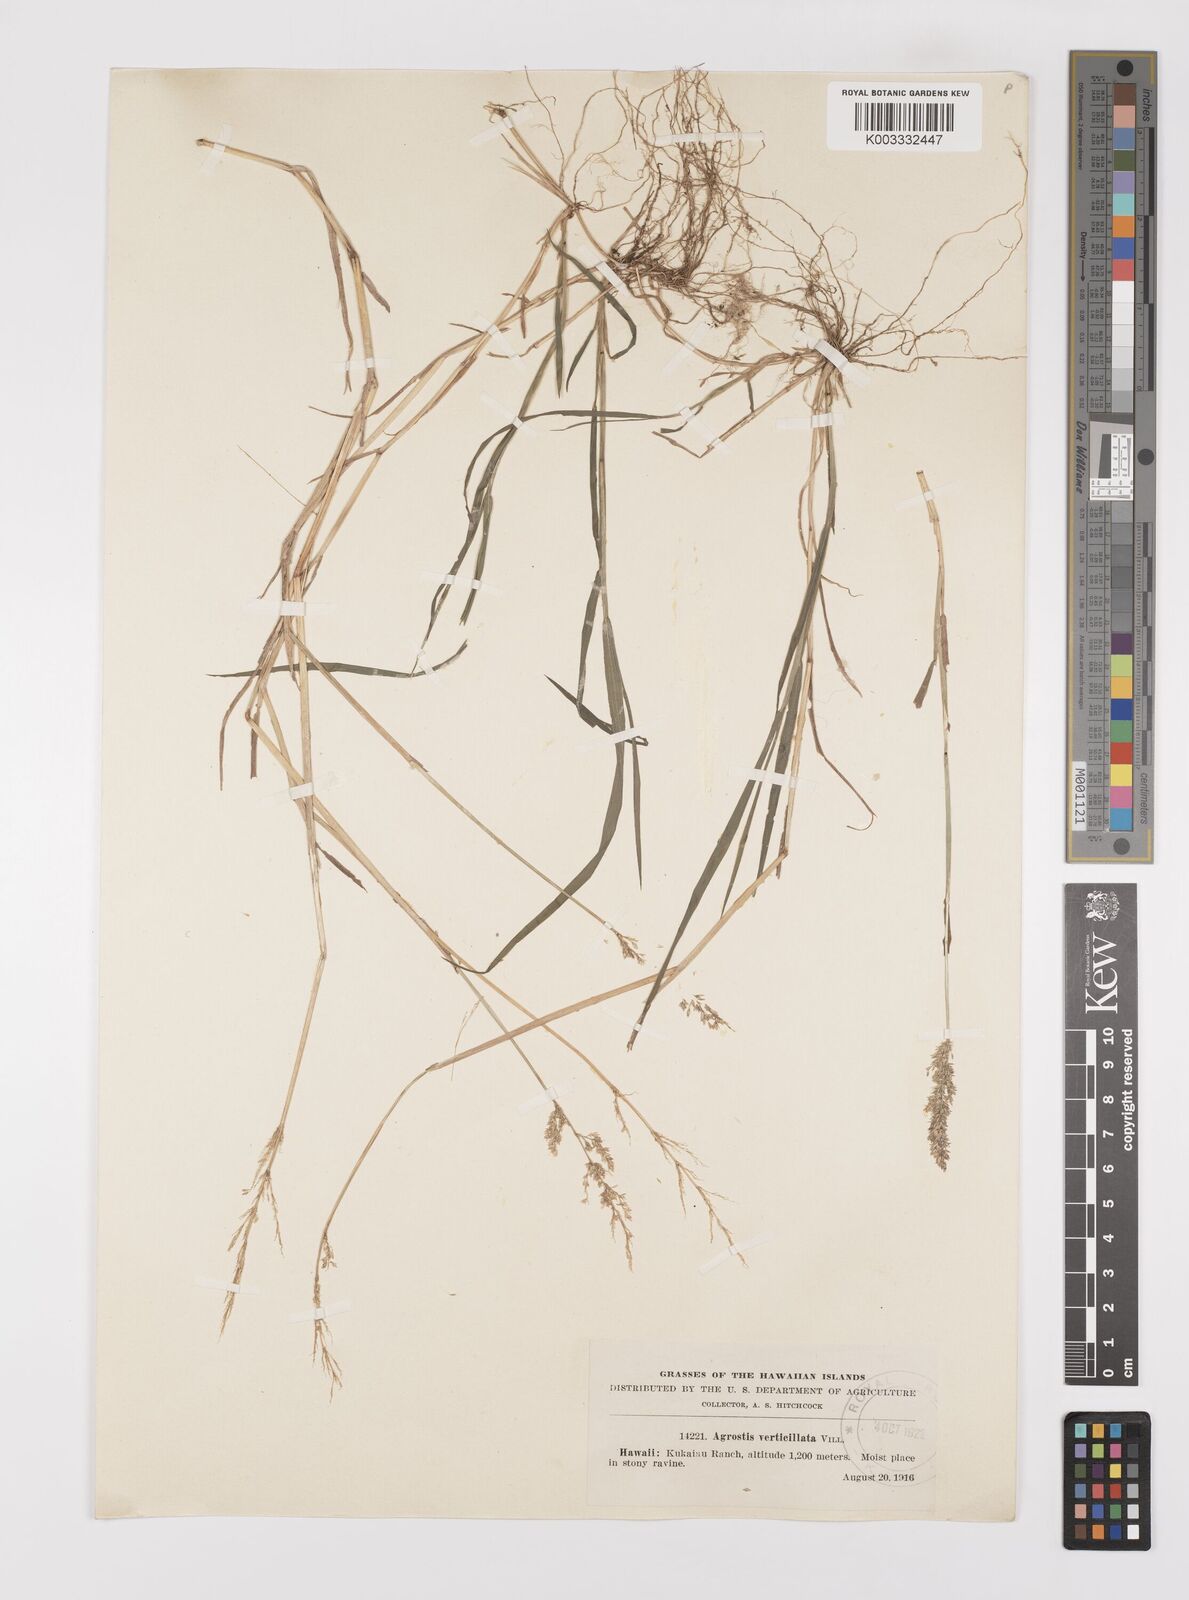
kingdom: Plantae
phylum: Tracheophyta
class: Liliopsida
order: Poales
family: Poaceae
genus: Polypogon
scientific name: Polypogon viridis
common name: Water bent
